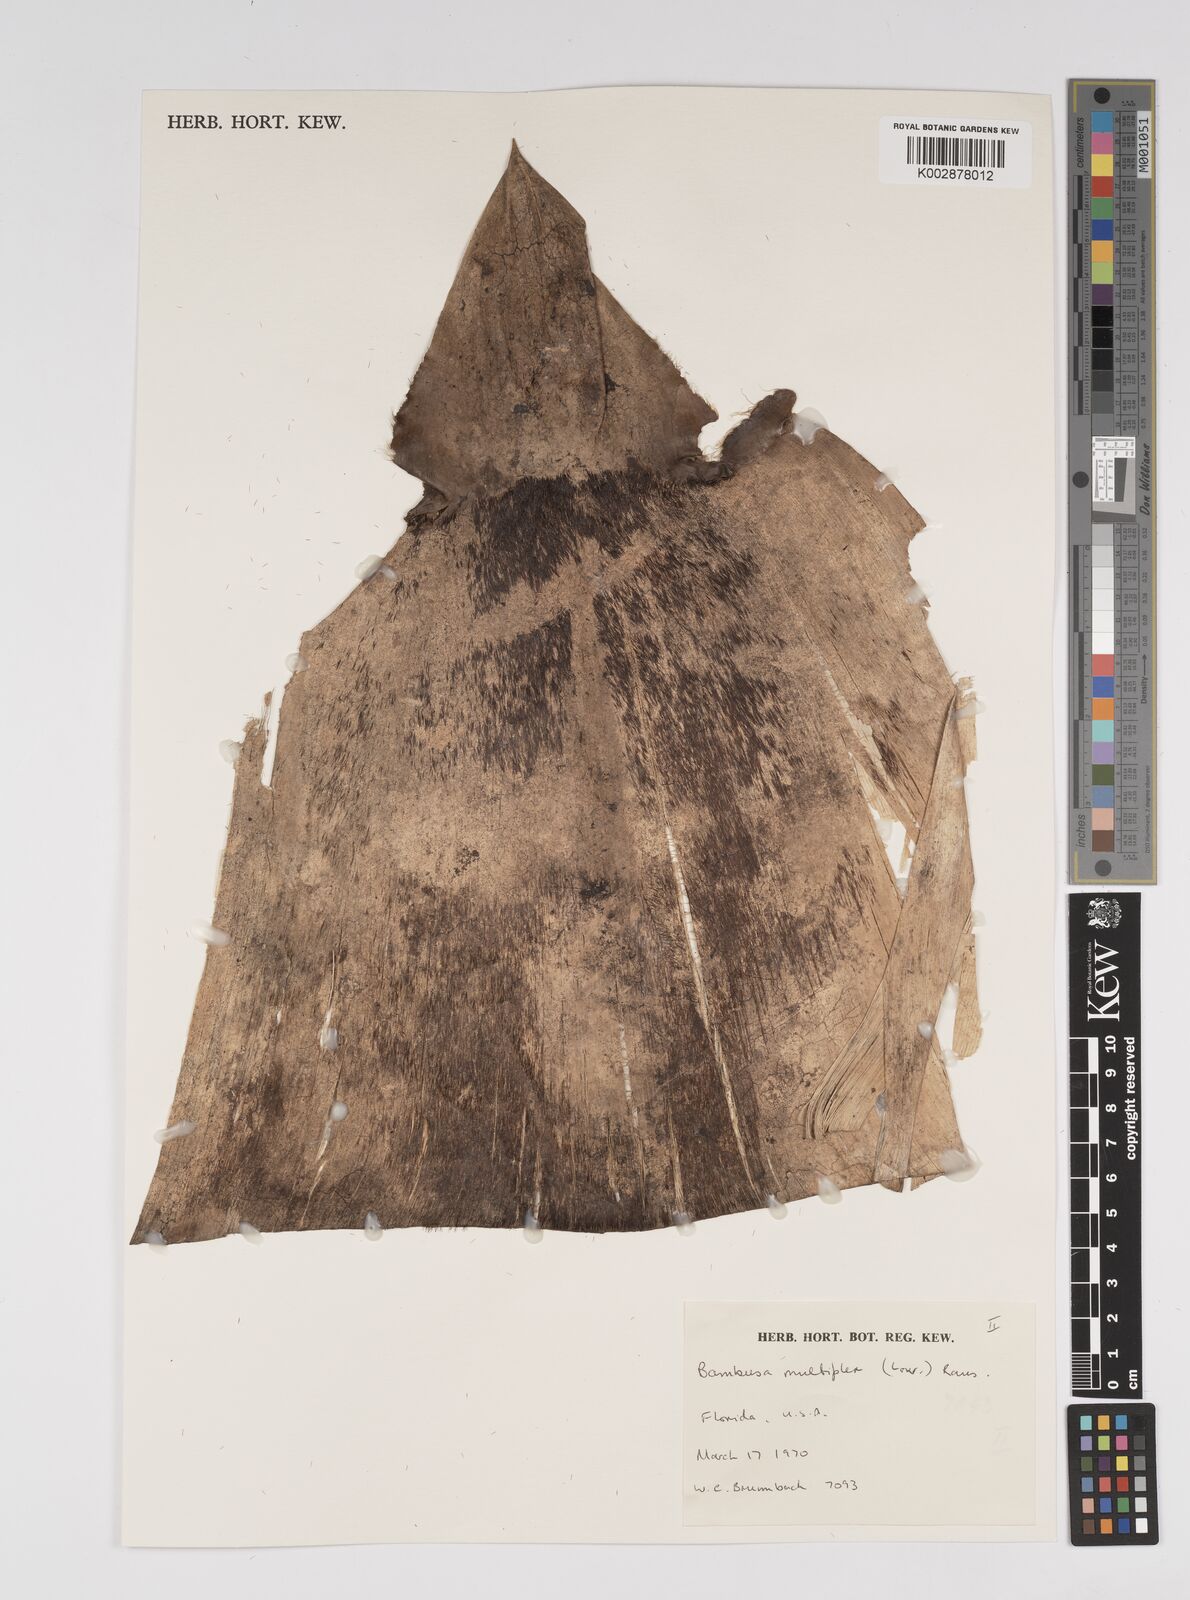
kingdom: Plantae
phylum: Tracheophyta
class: Liliopsida
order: Poales
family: Poaceae
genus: Bambusa
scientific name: Bambusa
